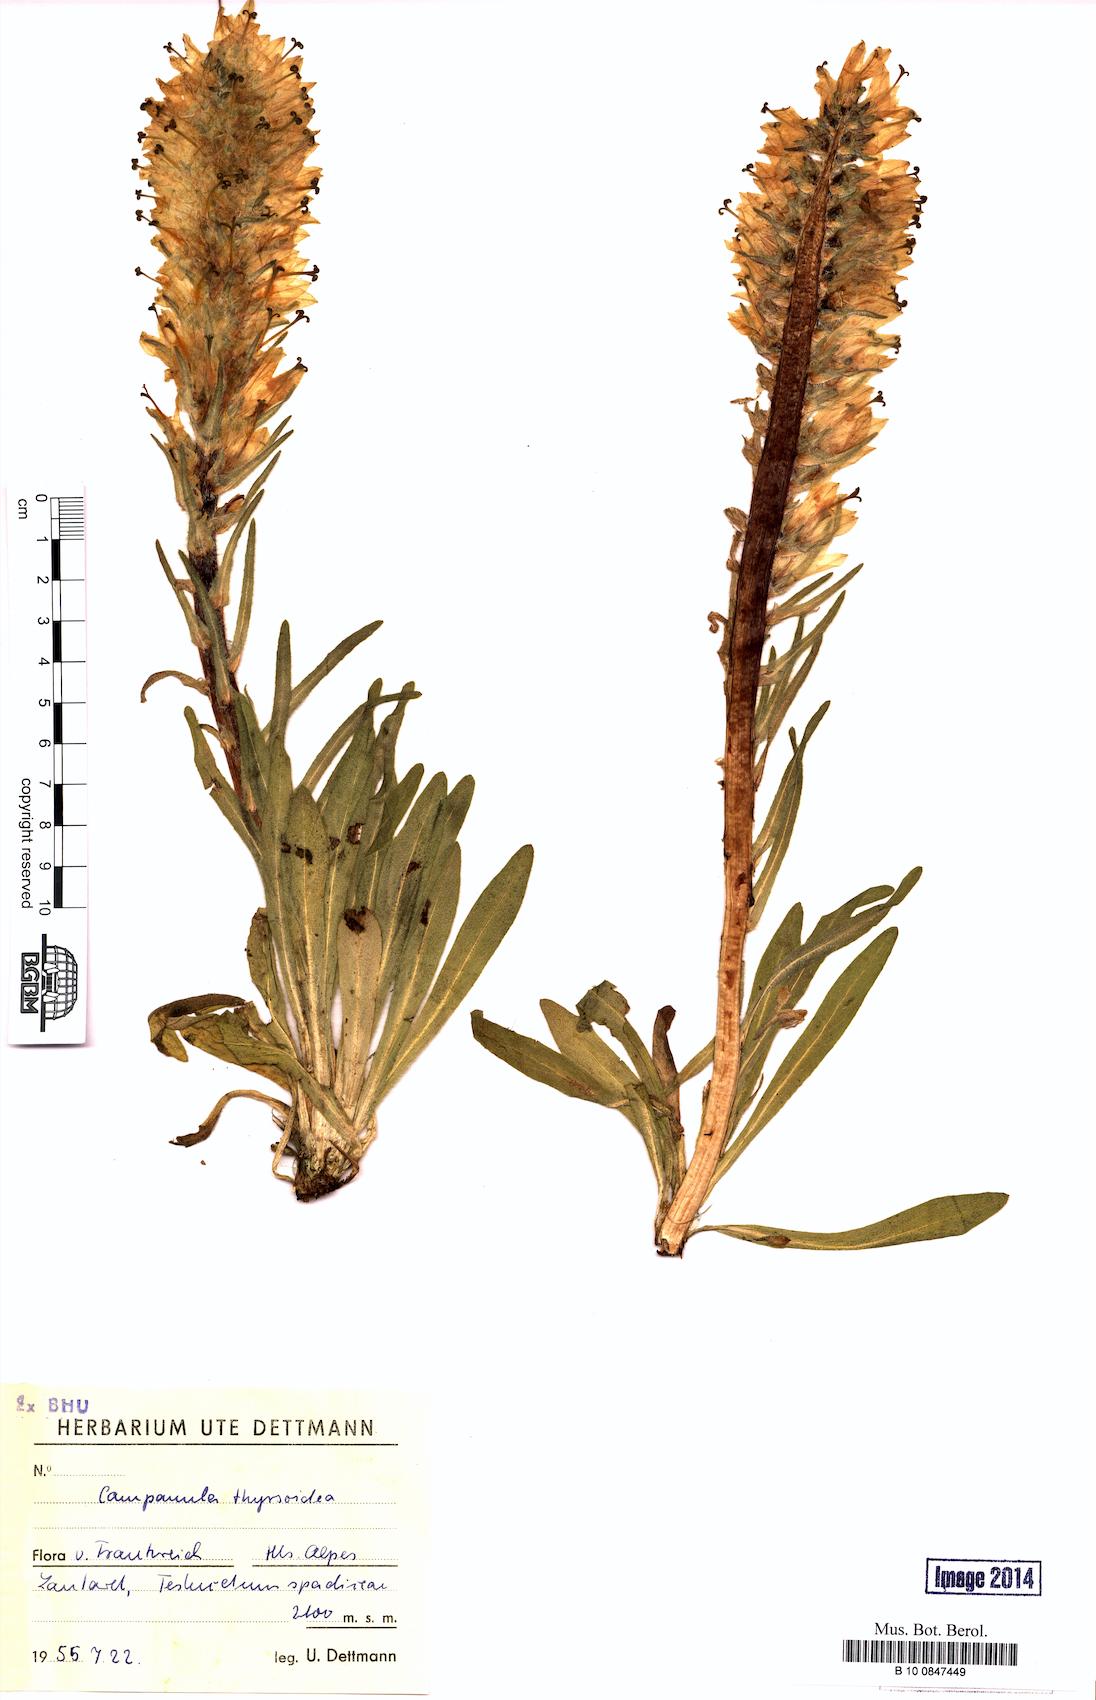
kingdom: Plantae
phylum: Tracheophyta
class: Magnoliopsida
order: Asterales
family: Campanulaceae
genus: Campanula
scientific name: Campanula thyrsoides
